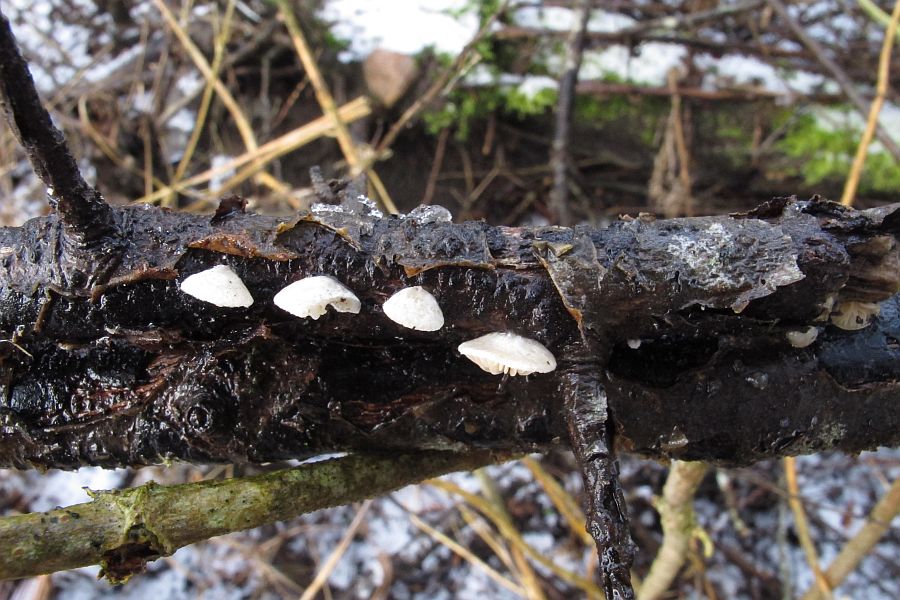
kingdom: Fungi
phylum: Basidiomycota
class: Agaricomycetes
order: Agaricales
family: Crepidotaceae
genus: Crepidotus
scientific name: Crepidotus cesatii
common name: almindelig muslingesvamp
